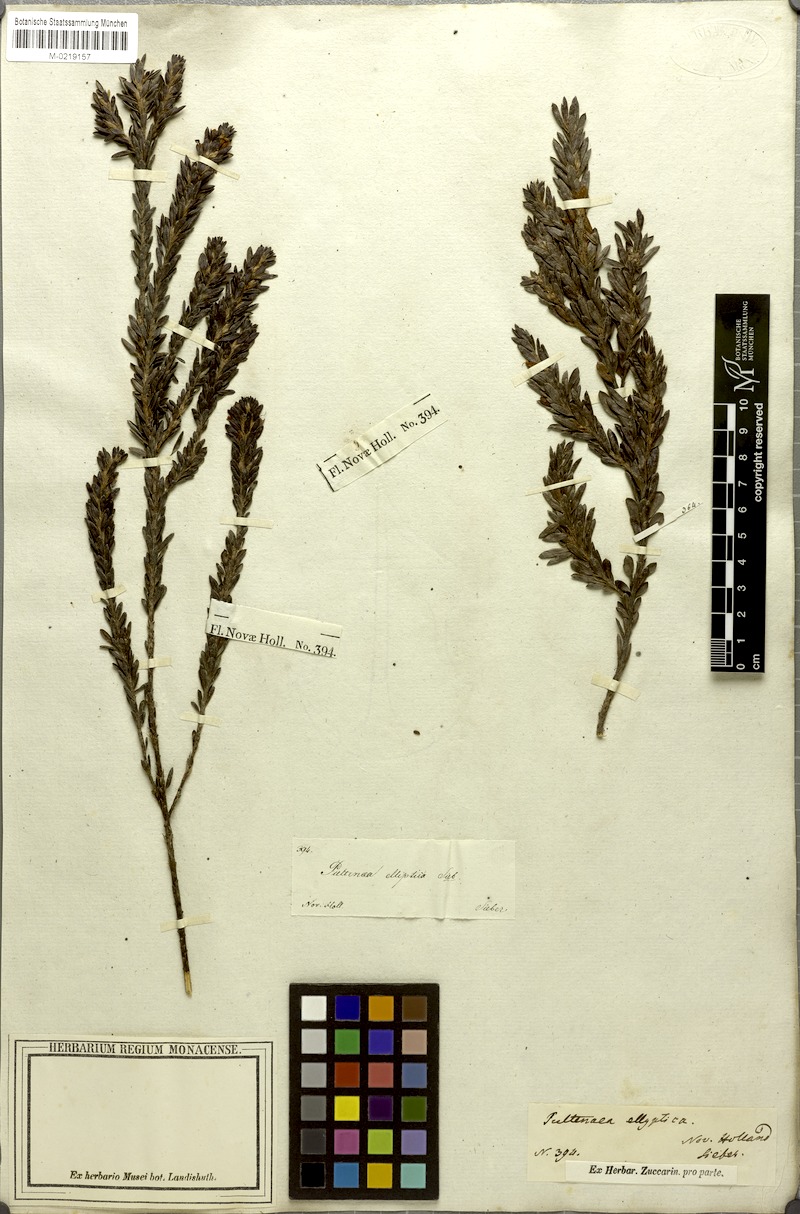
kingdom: Plantae
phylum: Tracheophyta
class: Magnoliopsida
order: Fabales
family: Fabaceae
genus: Pultenaea
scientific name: Pultenaea
